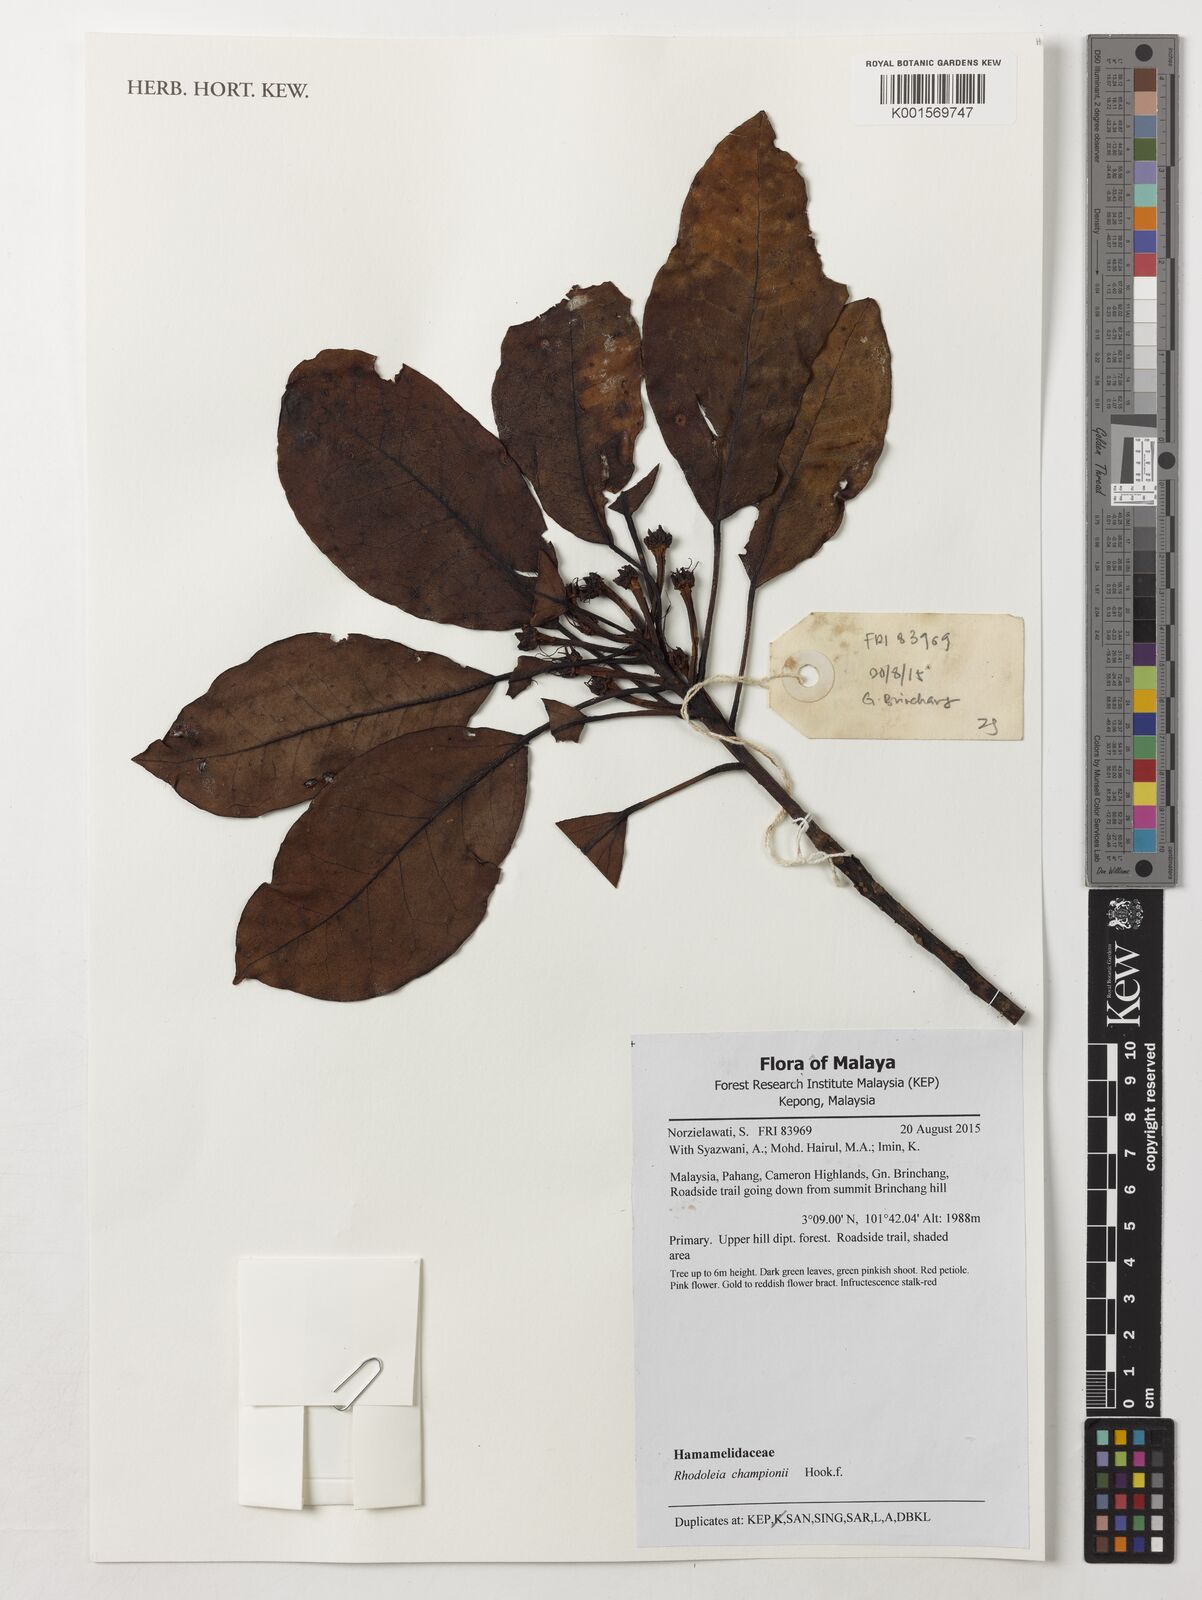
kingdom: Plantae
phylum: Tracheophyta
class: Magnoliopsida
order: Saxifragales
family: Hamamelidaceae
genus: Rhodoleia
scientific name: Rhodoleia championii
